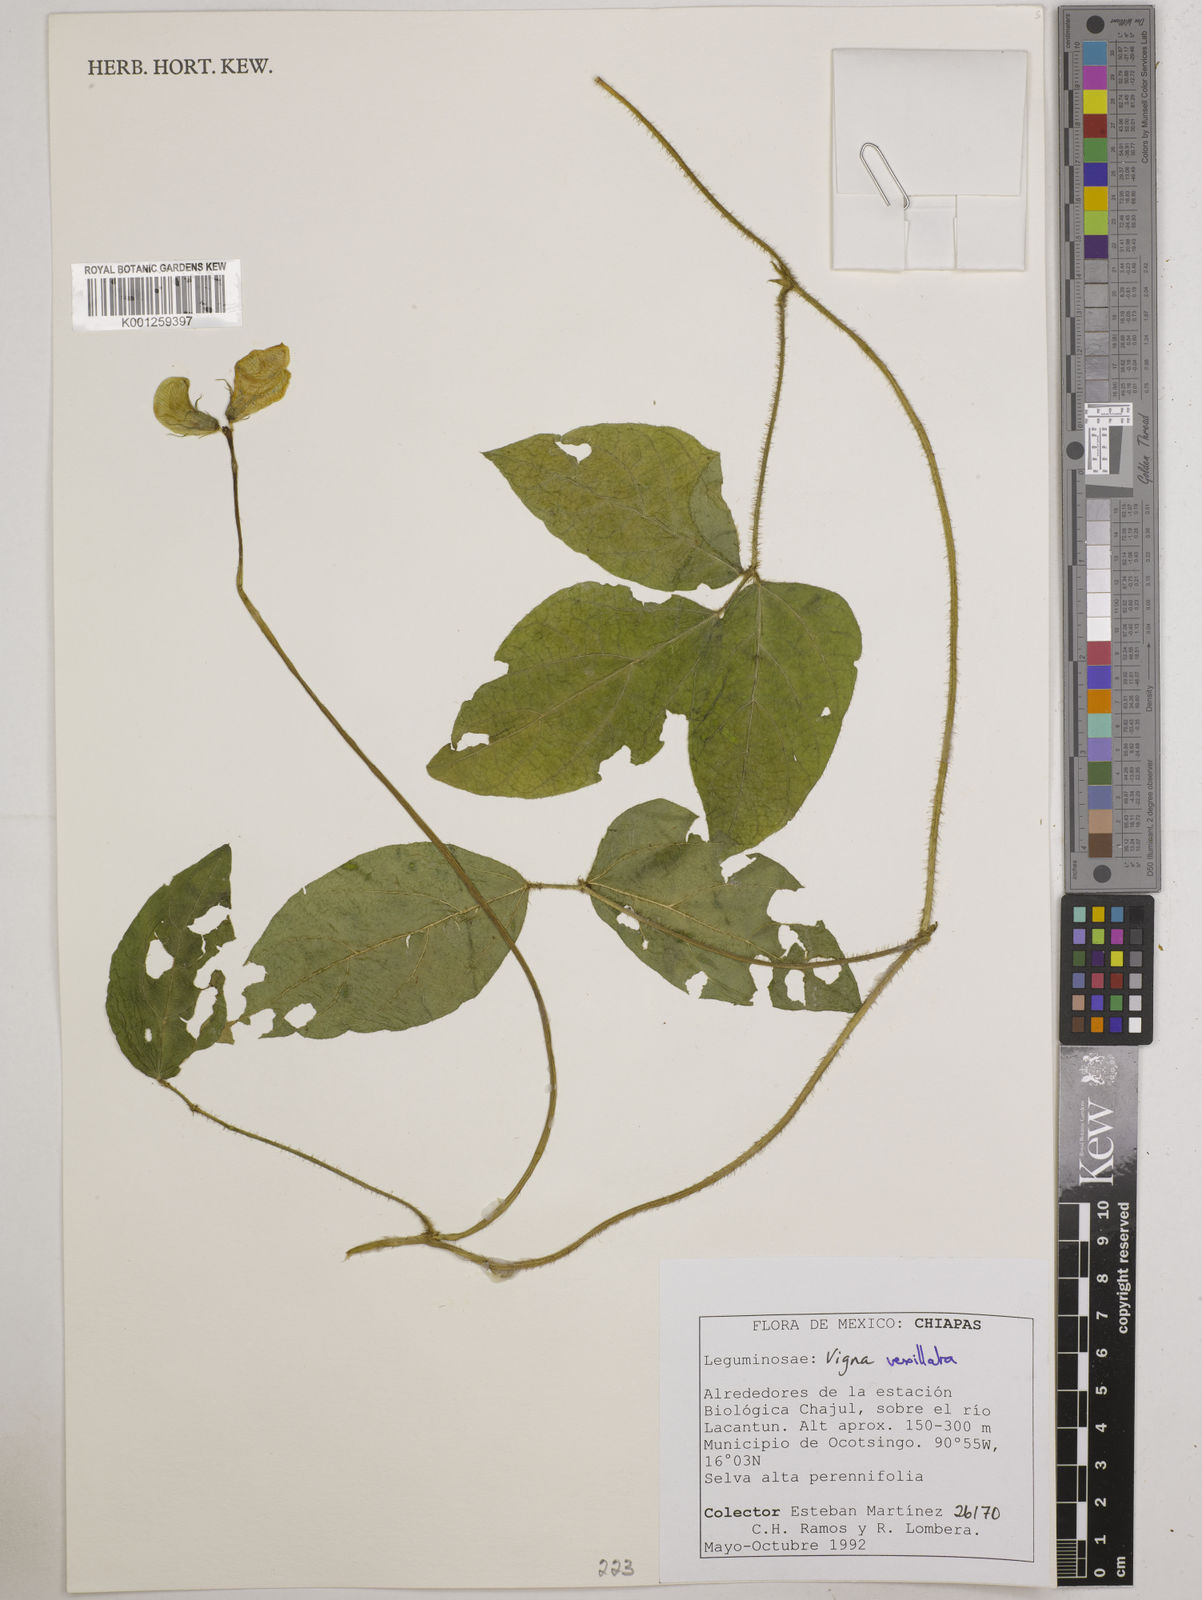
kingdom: Plantae
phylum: Tracheophyta
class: Magnoliopsida
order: Fabales
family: Fabaceae
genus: Vigna
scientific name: Vigna vexillata
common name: Zombi pea
